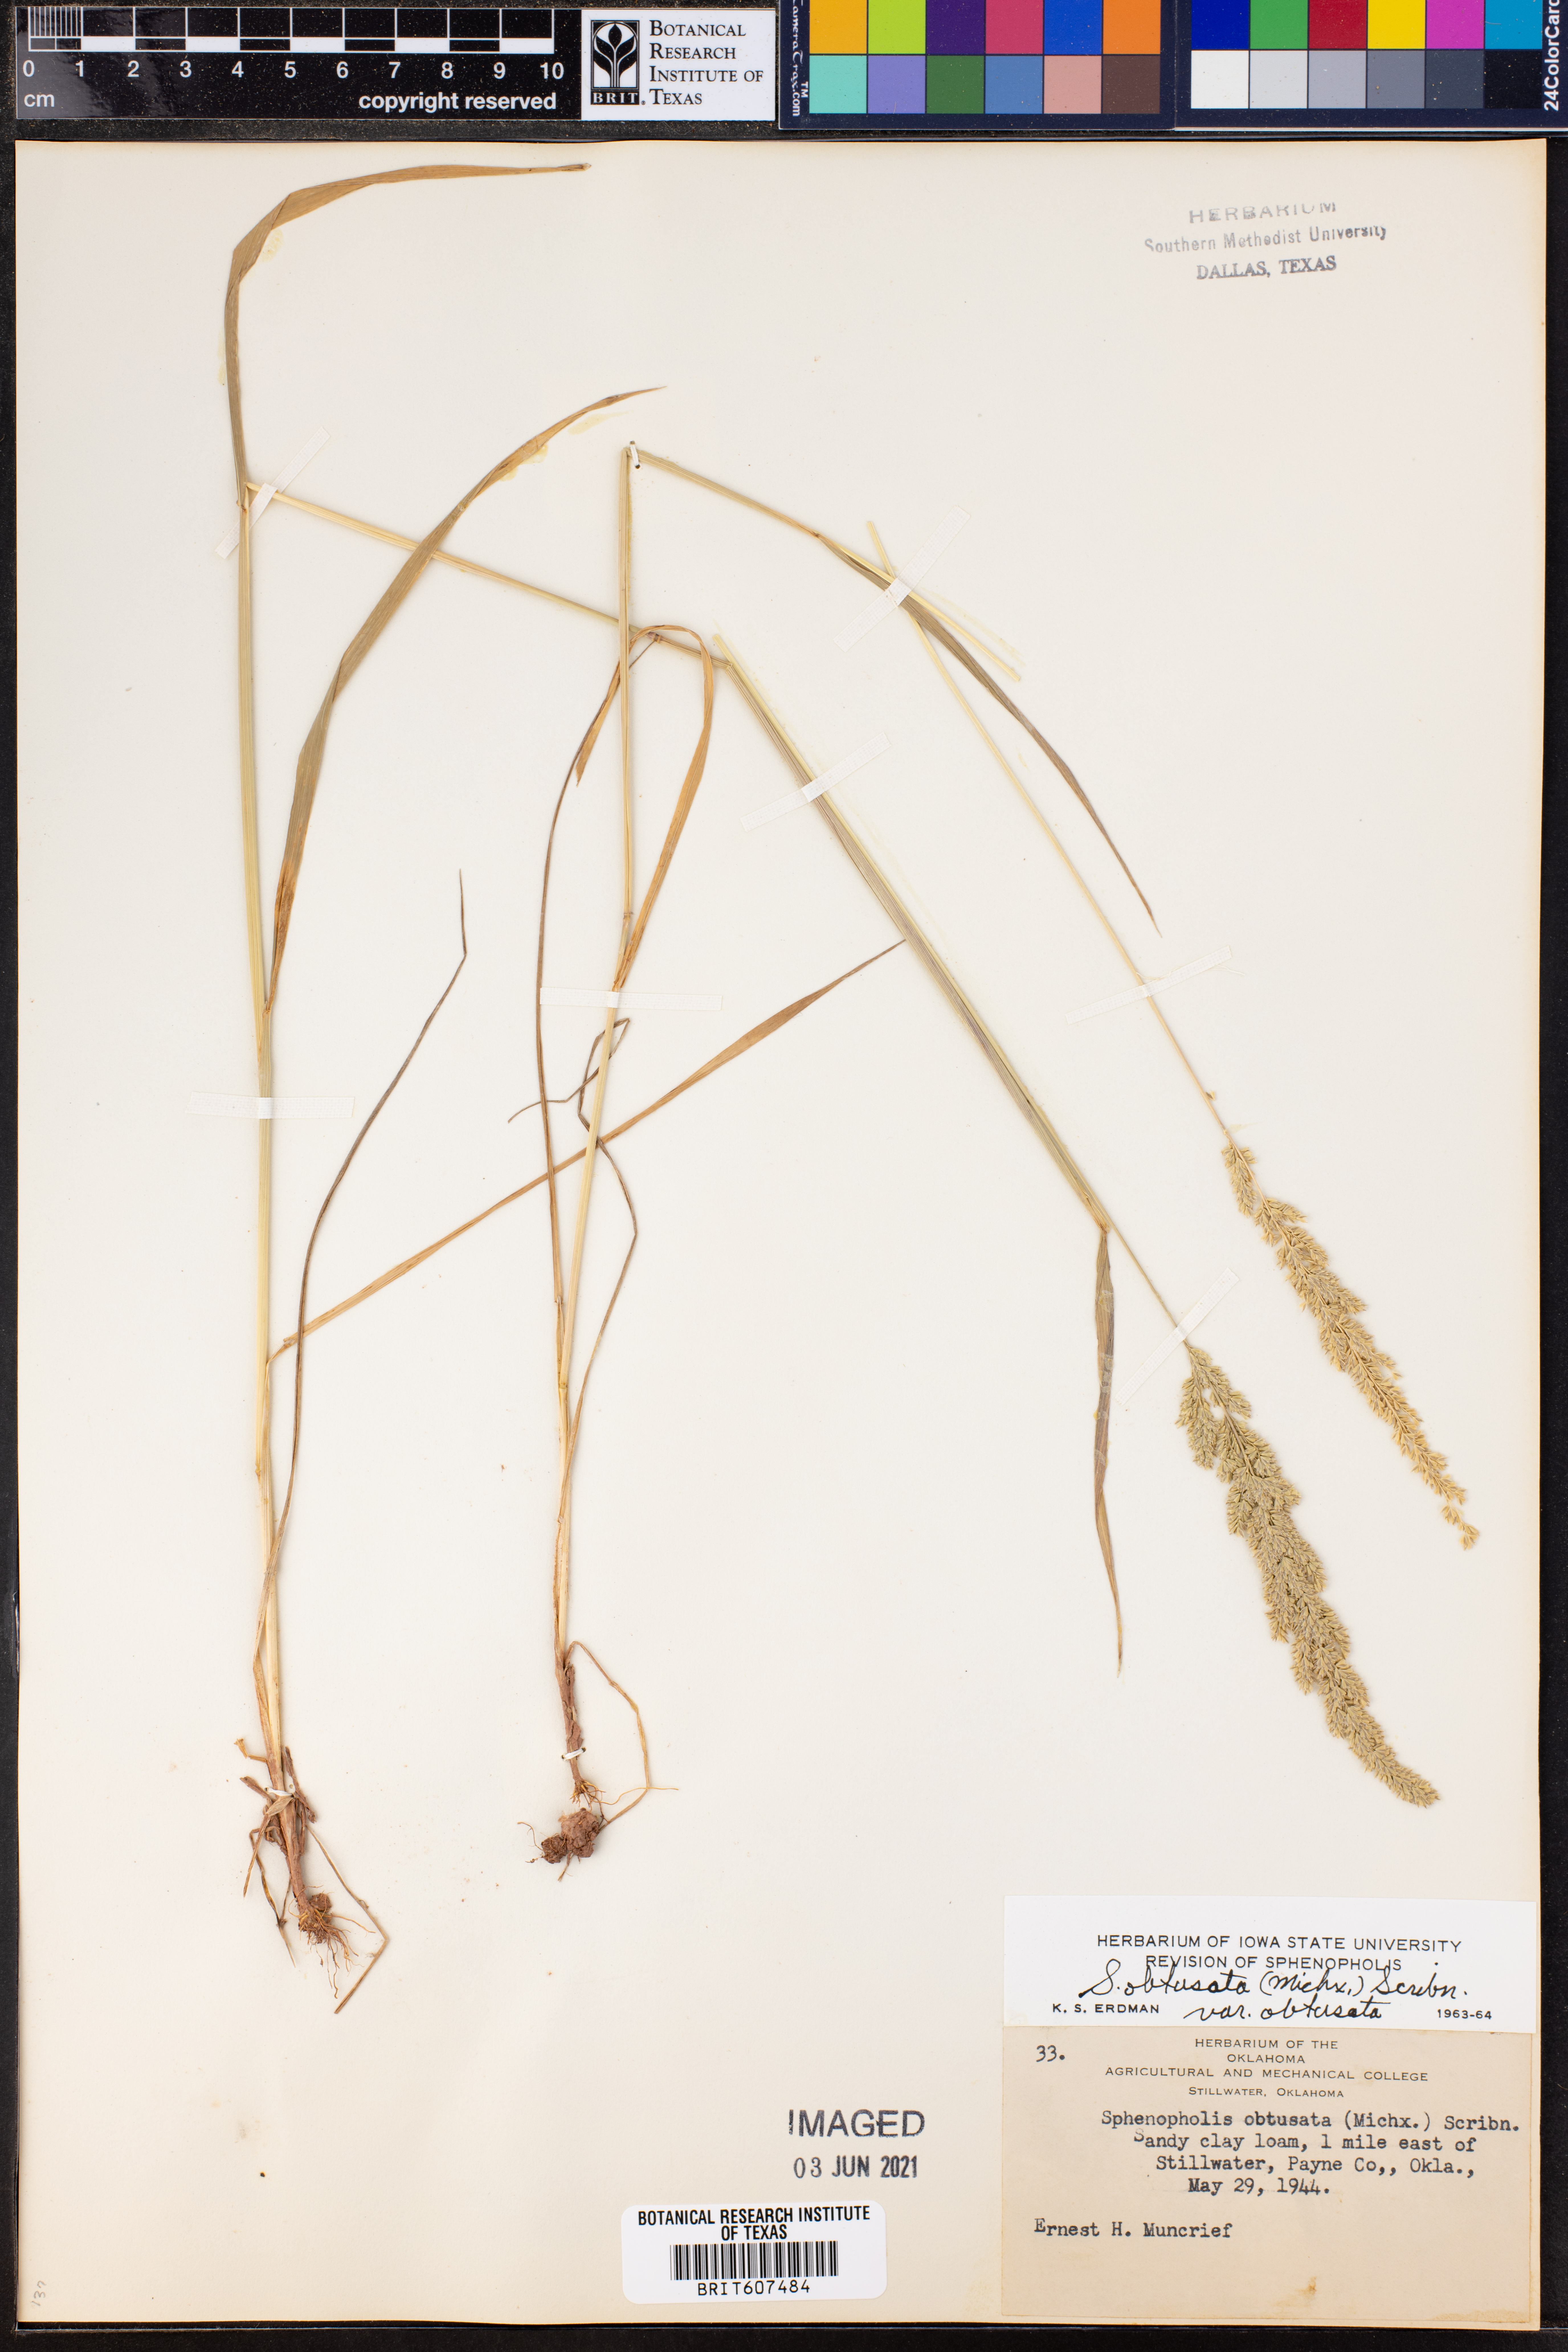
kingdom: Plantae
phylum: Tracheophyta
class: Liliopsida
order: Poales
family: Poaceae
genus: Sphenopholis
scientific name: Sphenopholis obtusata
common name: Prairie grass
